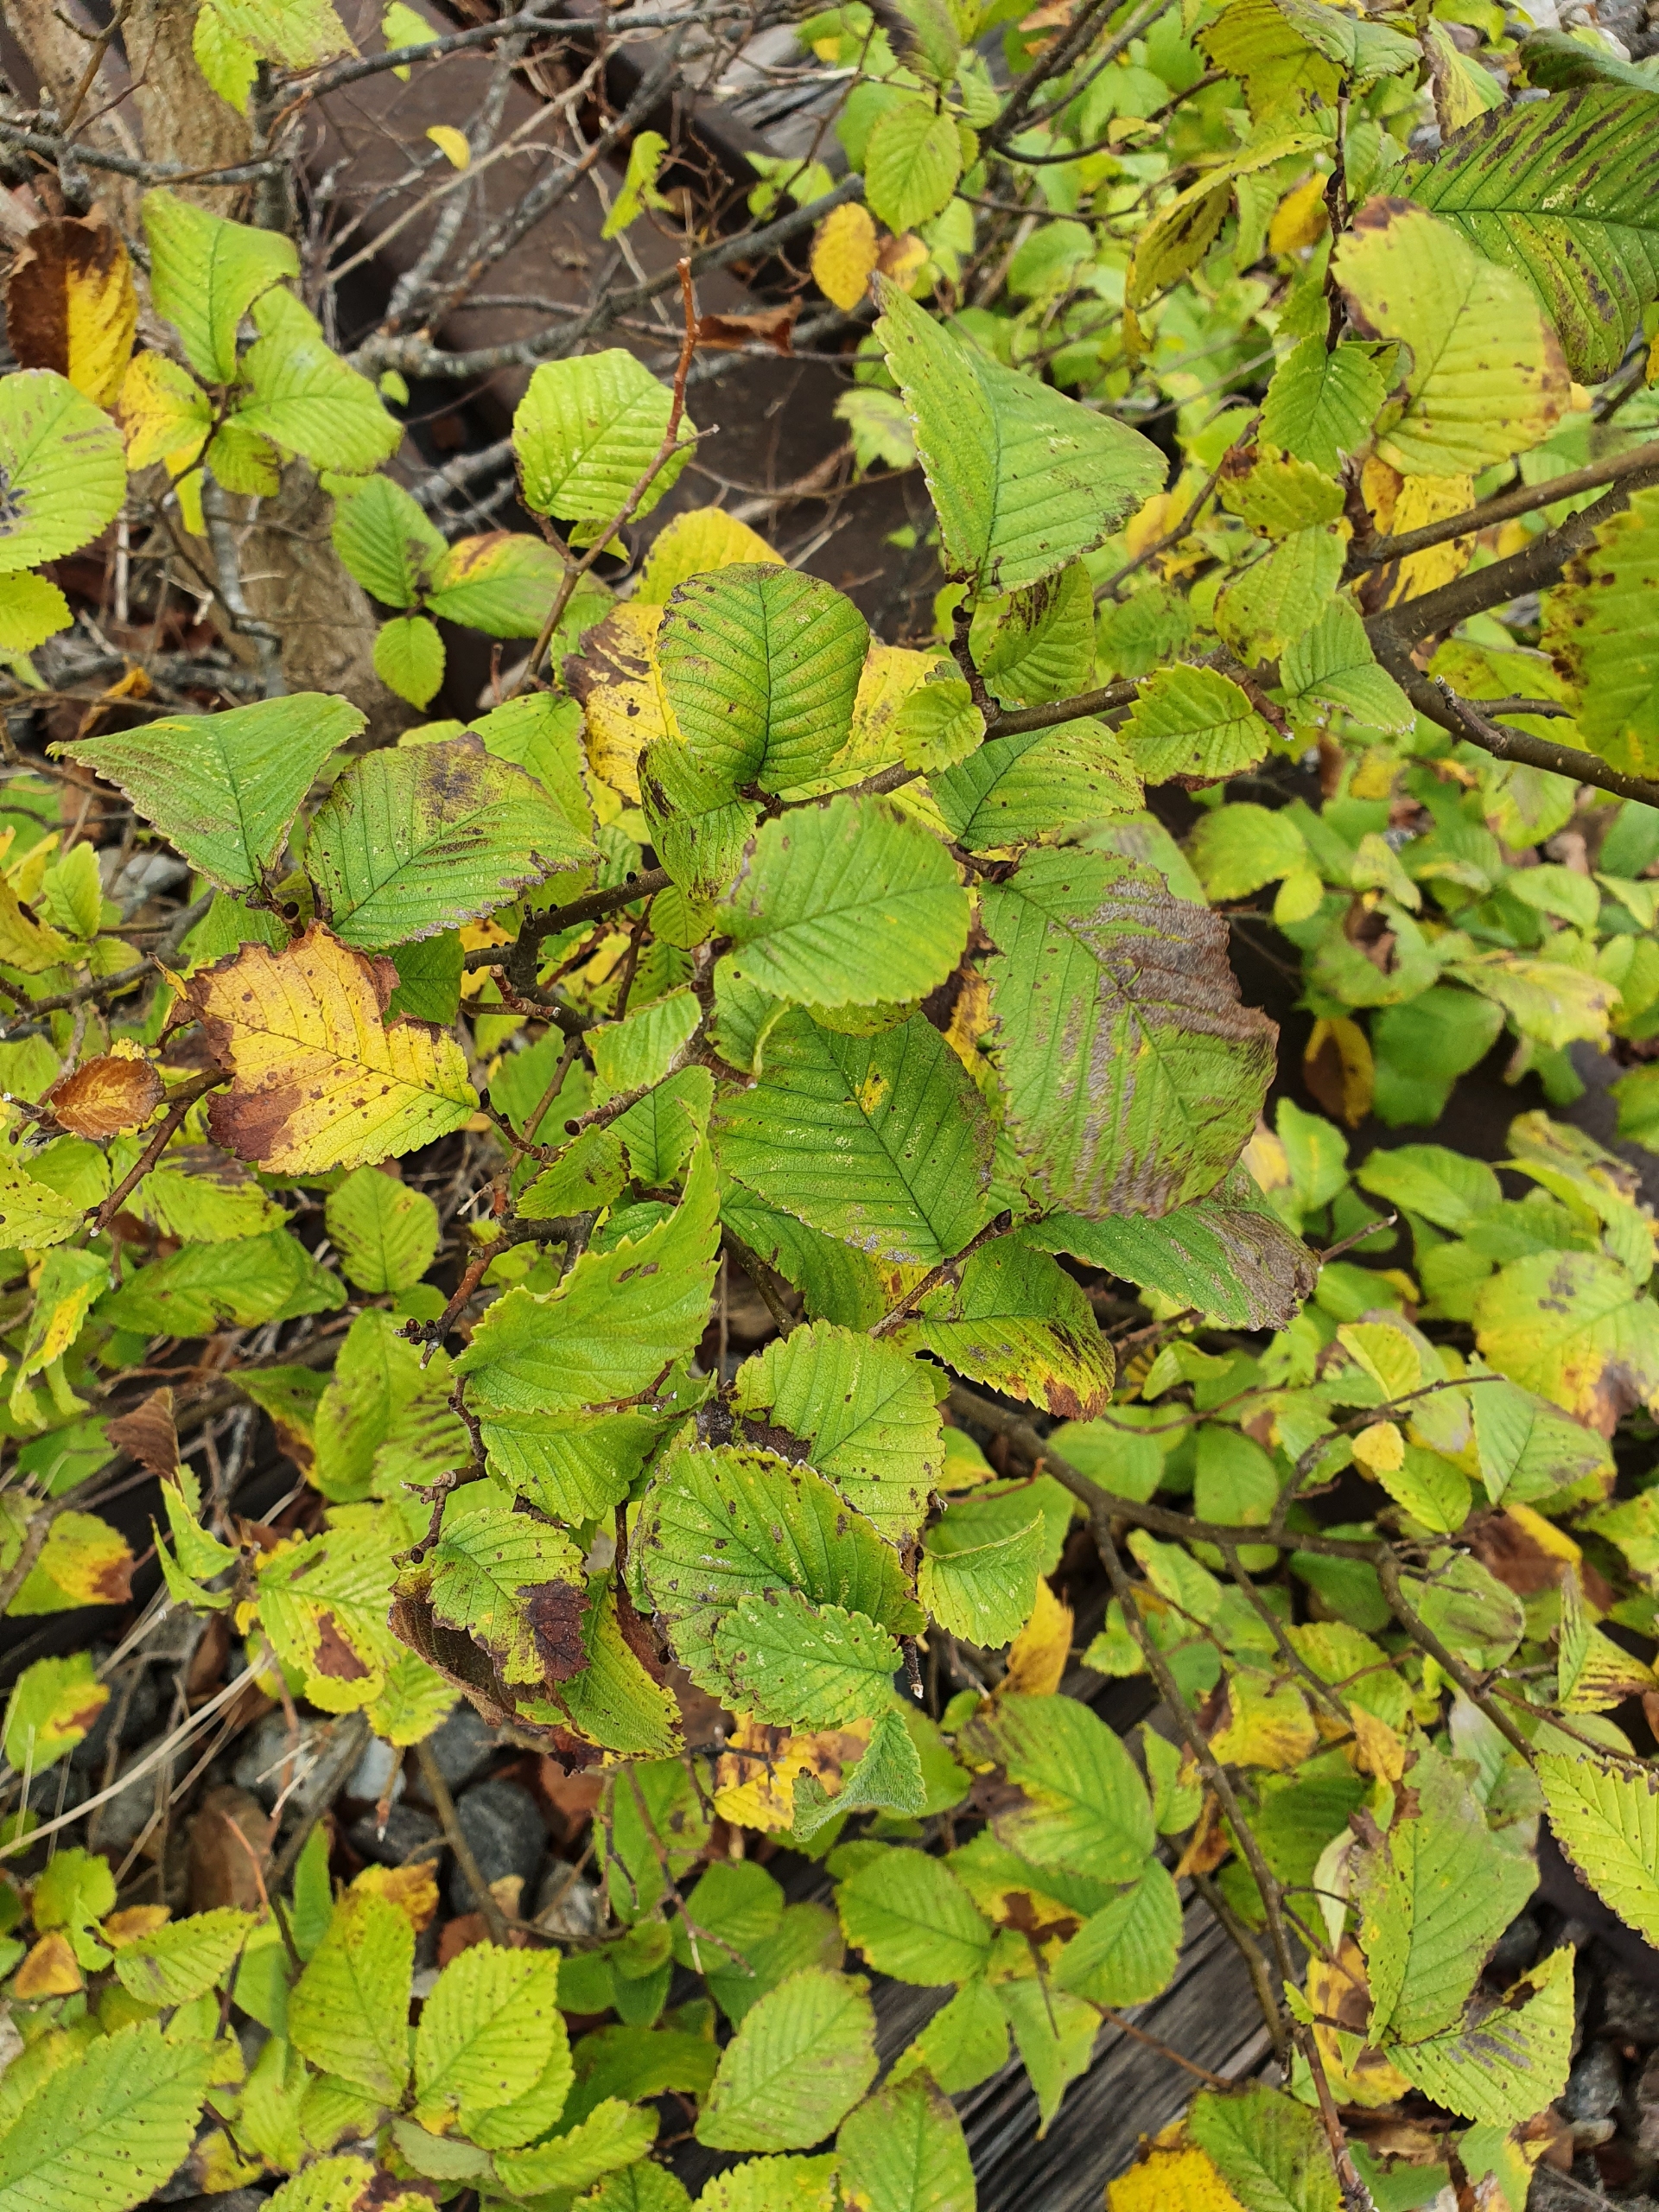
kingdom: Plantae
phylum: Tracheophyta
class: Magnoliopsida
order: Rosales
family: Ulmaceae
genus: Ulmus
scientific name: Ulmus glabra
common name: Skov-elm/storbladet elm
